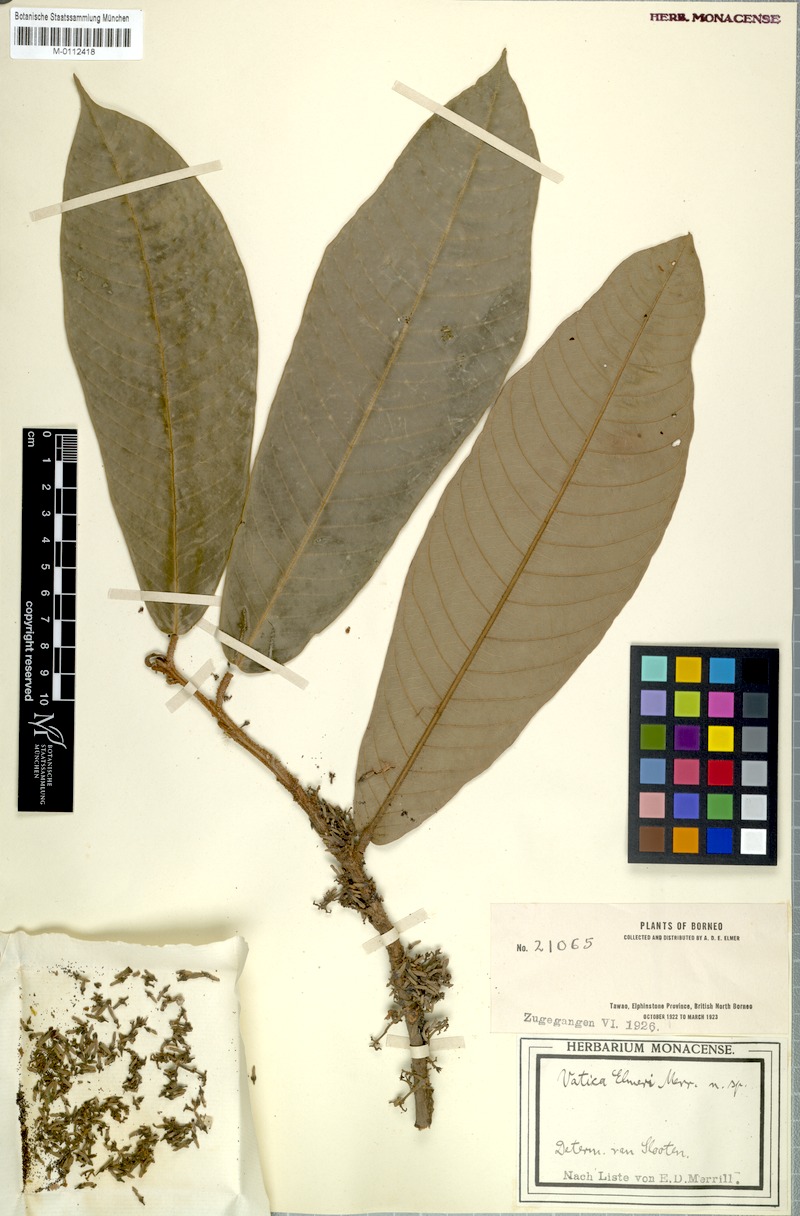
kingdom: Plantae
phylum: Tracheophyta
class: Magnoliopsida
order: Malvales
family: Dipterocarpaceae
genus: Vatica
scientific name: Vatica
